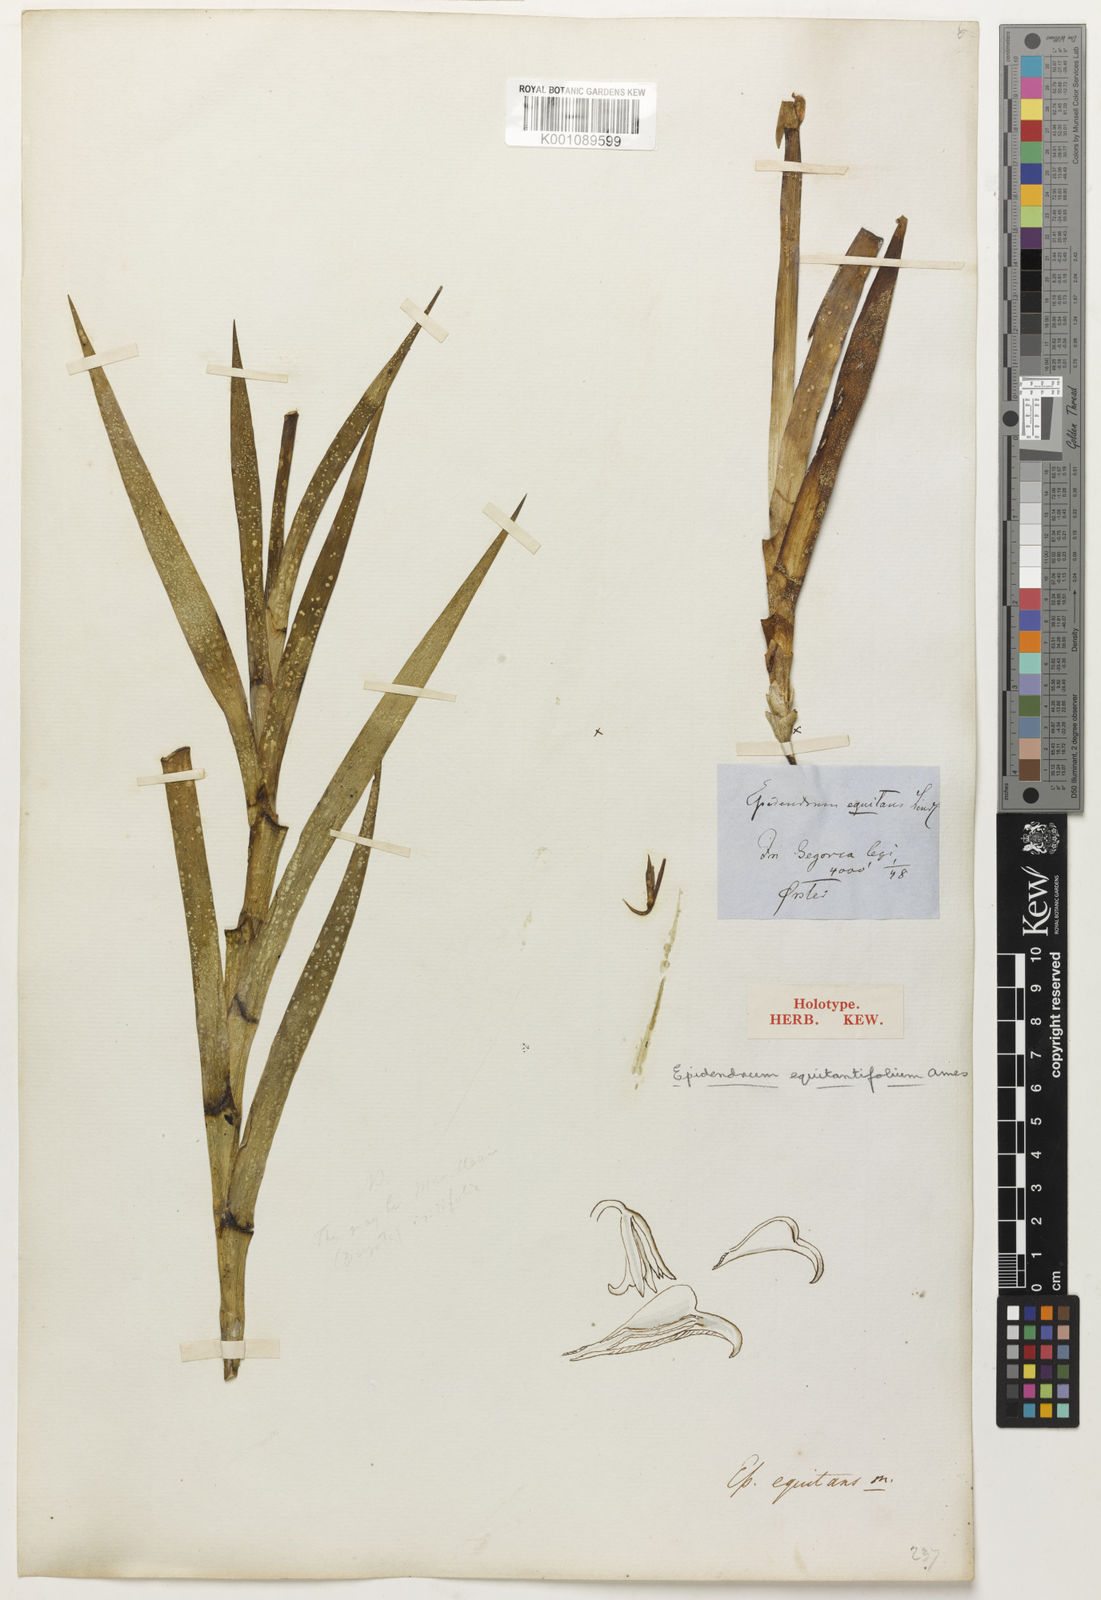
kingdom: Plantae
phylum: Tracheophyta
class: Liliopsida
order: Asparagales
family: Orchidaceae
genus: Jacquiniella
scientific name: Jacquiniella equitantifolia
